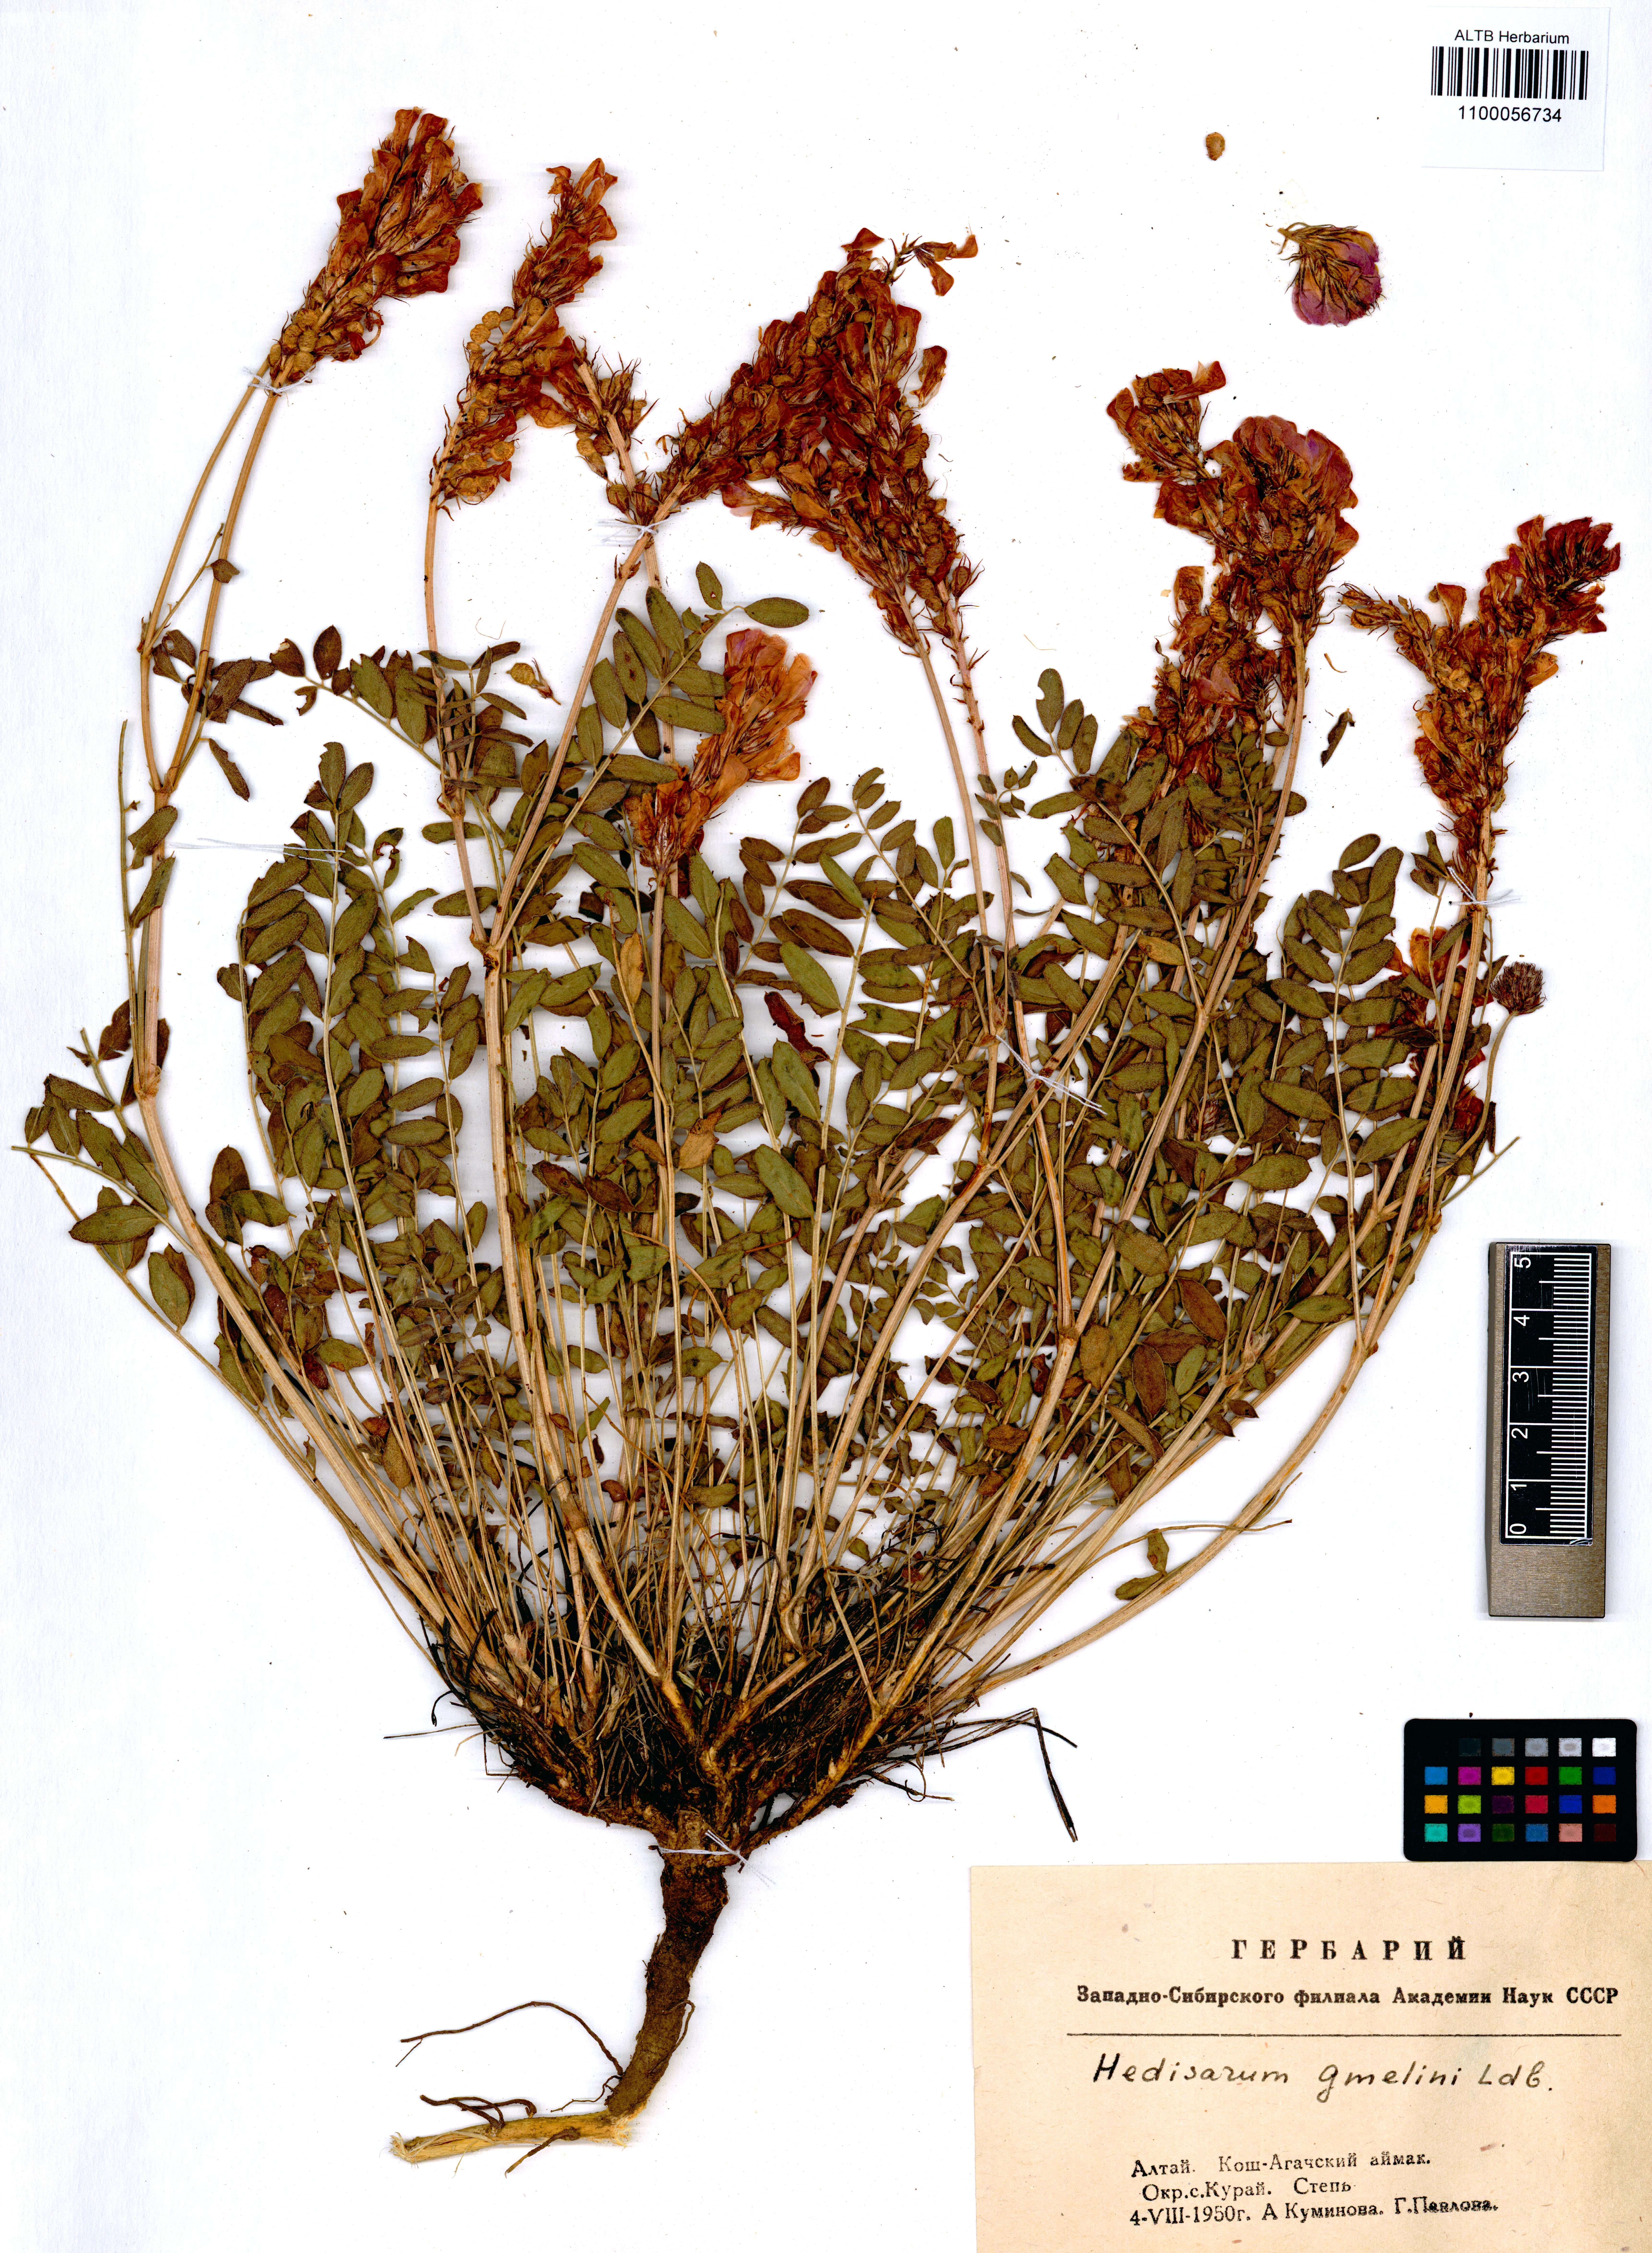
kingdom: Plantae
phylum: Tracheophyta
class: Magnoliopsida
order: Fabales
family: Fabaceae
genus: Hedysarum
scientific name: Hedysarum gmelinii
